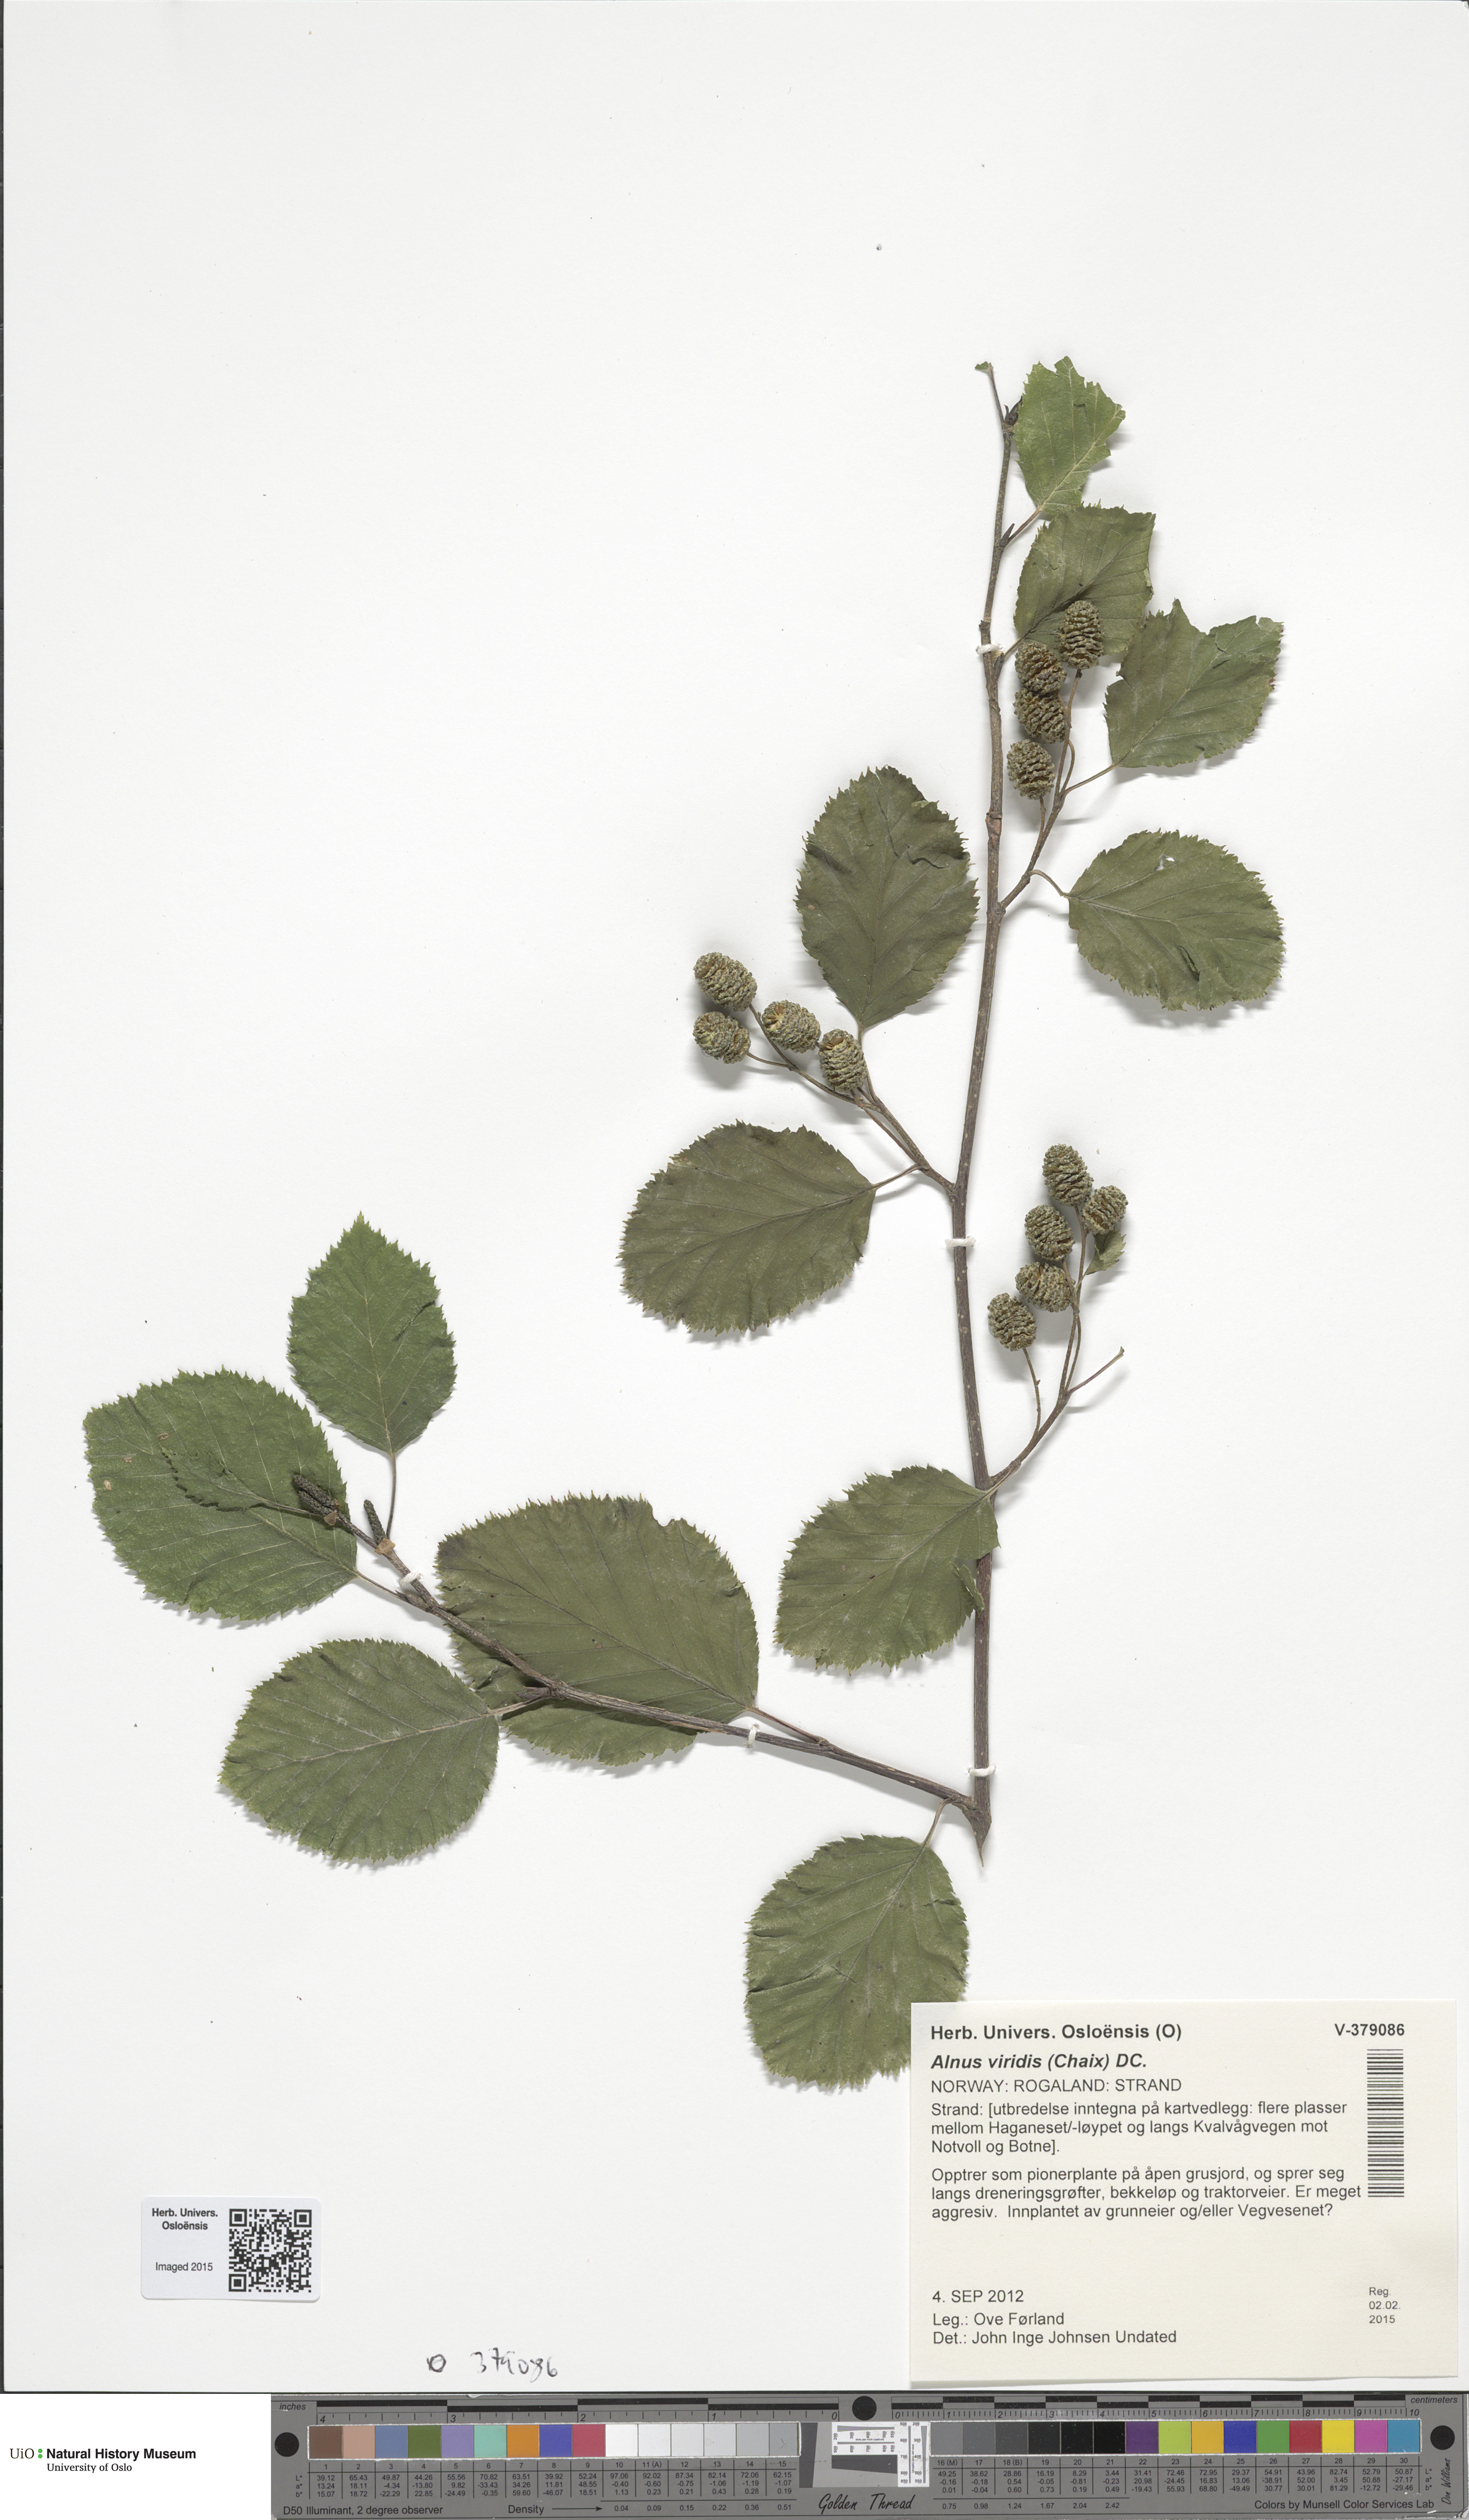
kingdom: Plantae
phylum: Tracheophyta
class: Magnoliopsida
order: Fagales
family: Betulaceae
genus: Alnus
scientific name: Alnus alnobetula
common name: Green alder
